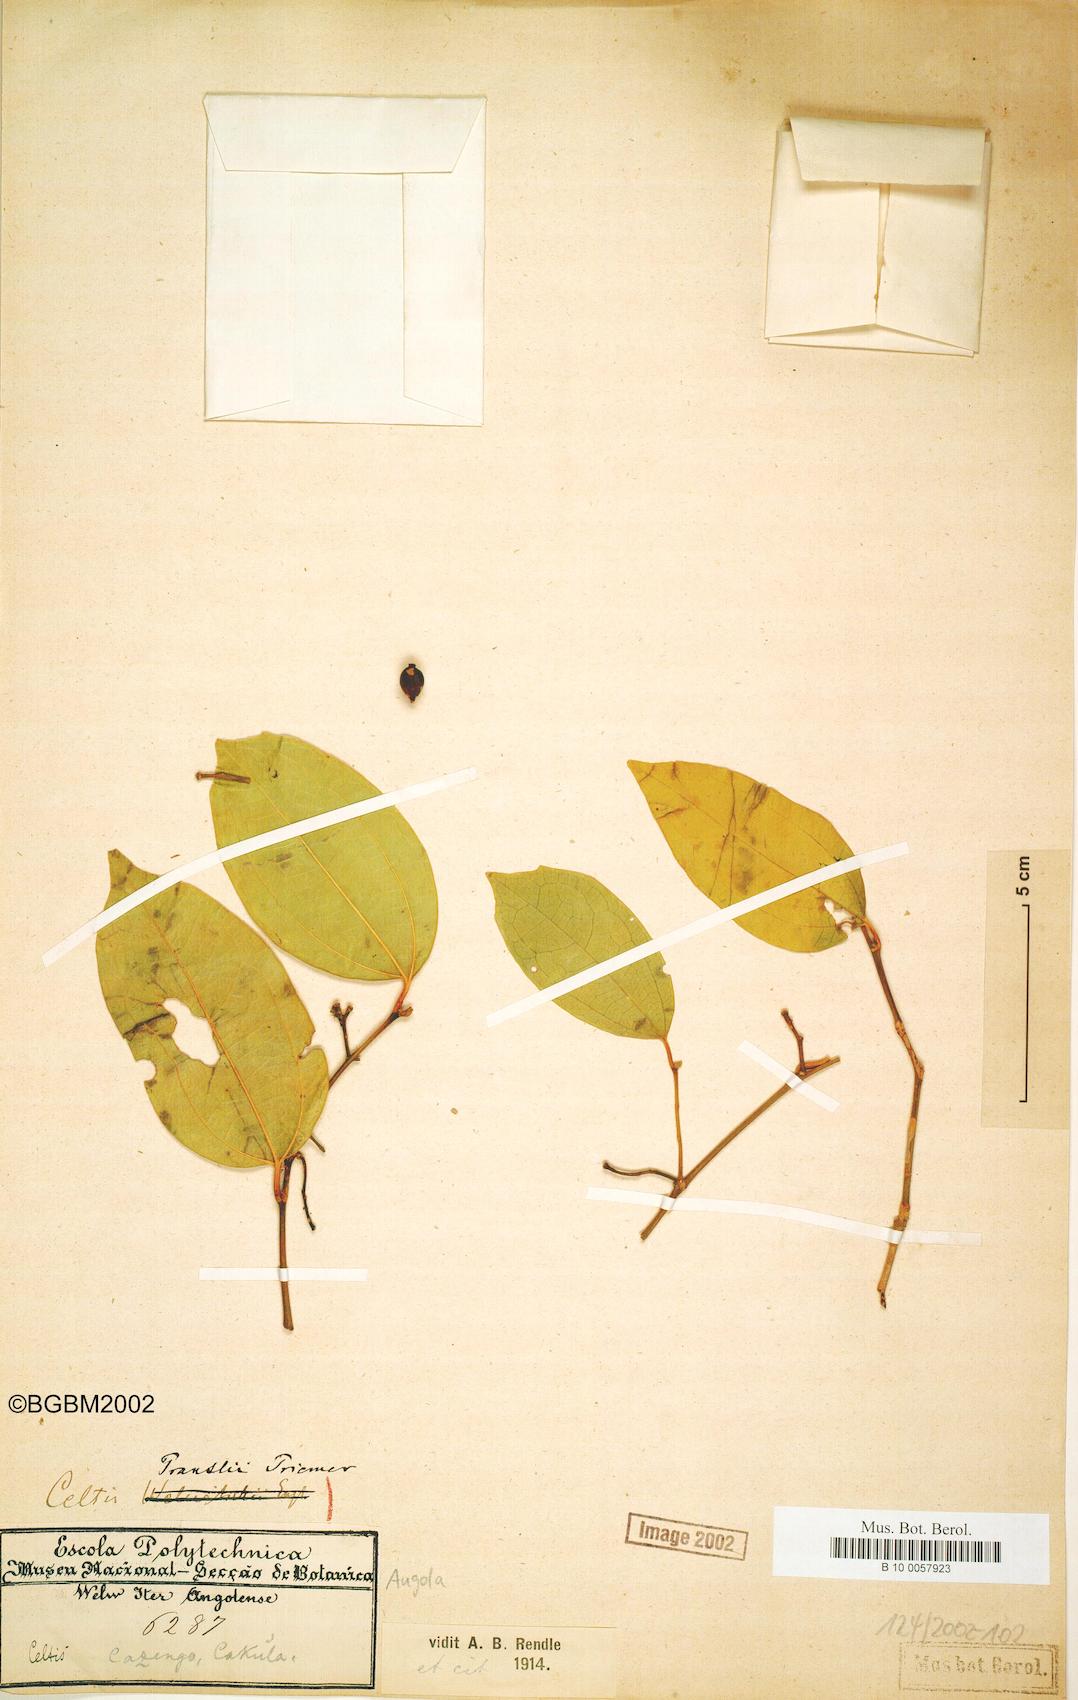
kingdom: Plantae
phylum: Tracheophyta
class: Magnoliopsida
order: Rosales
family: Cannabaceae
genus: Celtis
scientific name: Celtis philippensis
